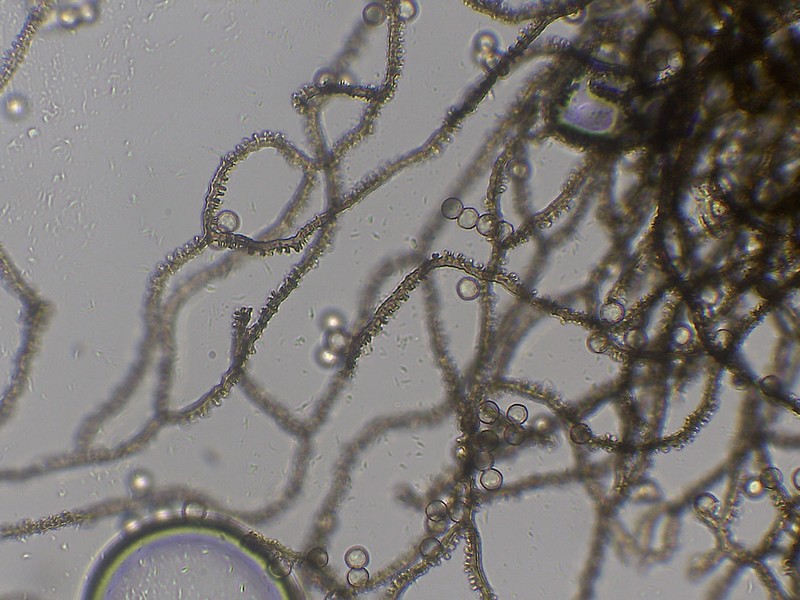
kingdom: Protozoa
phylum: Mycetozoa
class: Myxomycetes
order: Trichiales
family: Arcyriaceae
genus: Arcyria
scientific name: Arcyria denudata
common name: karminrød skålsvøb
